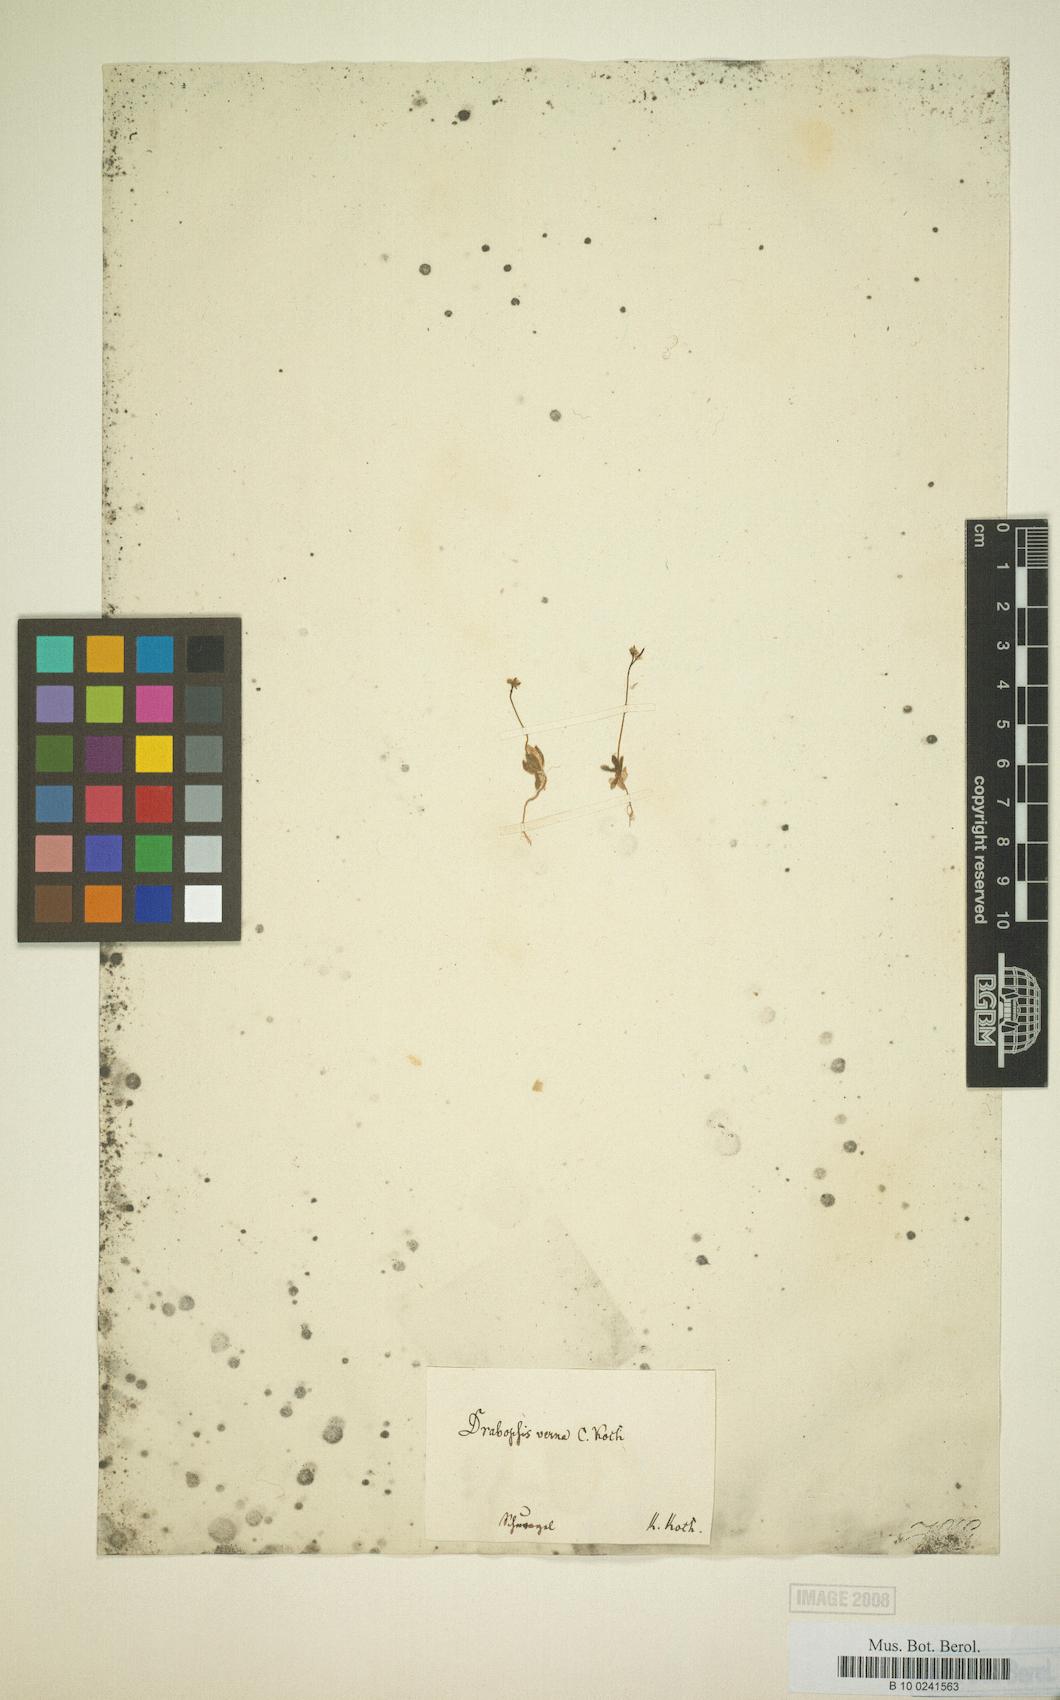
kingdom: Plantae
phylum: Tracheophyta
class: Magnoliopsida
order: Brassicales
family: Brassicaceae
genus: Draba
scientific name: Draba nuda
